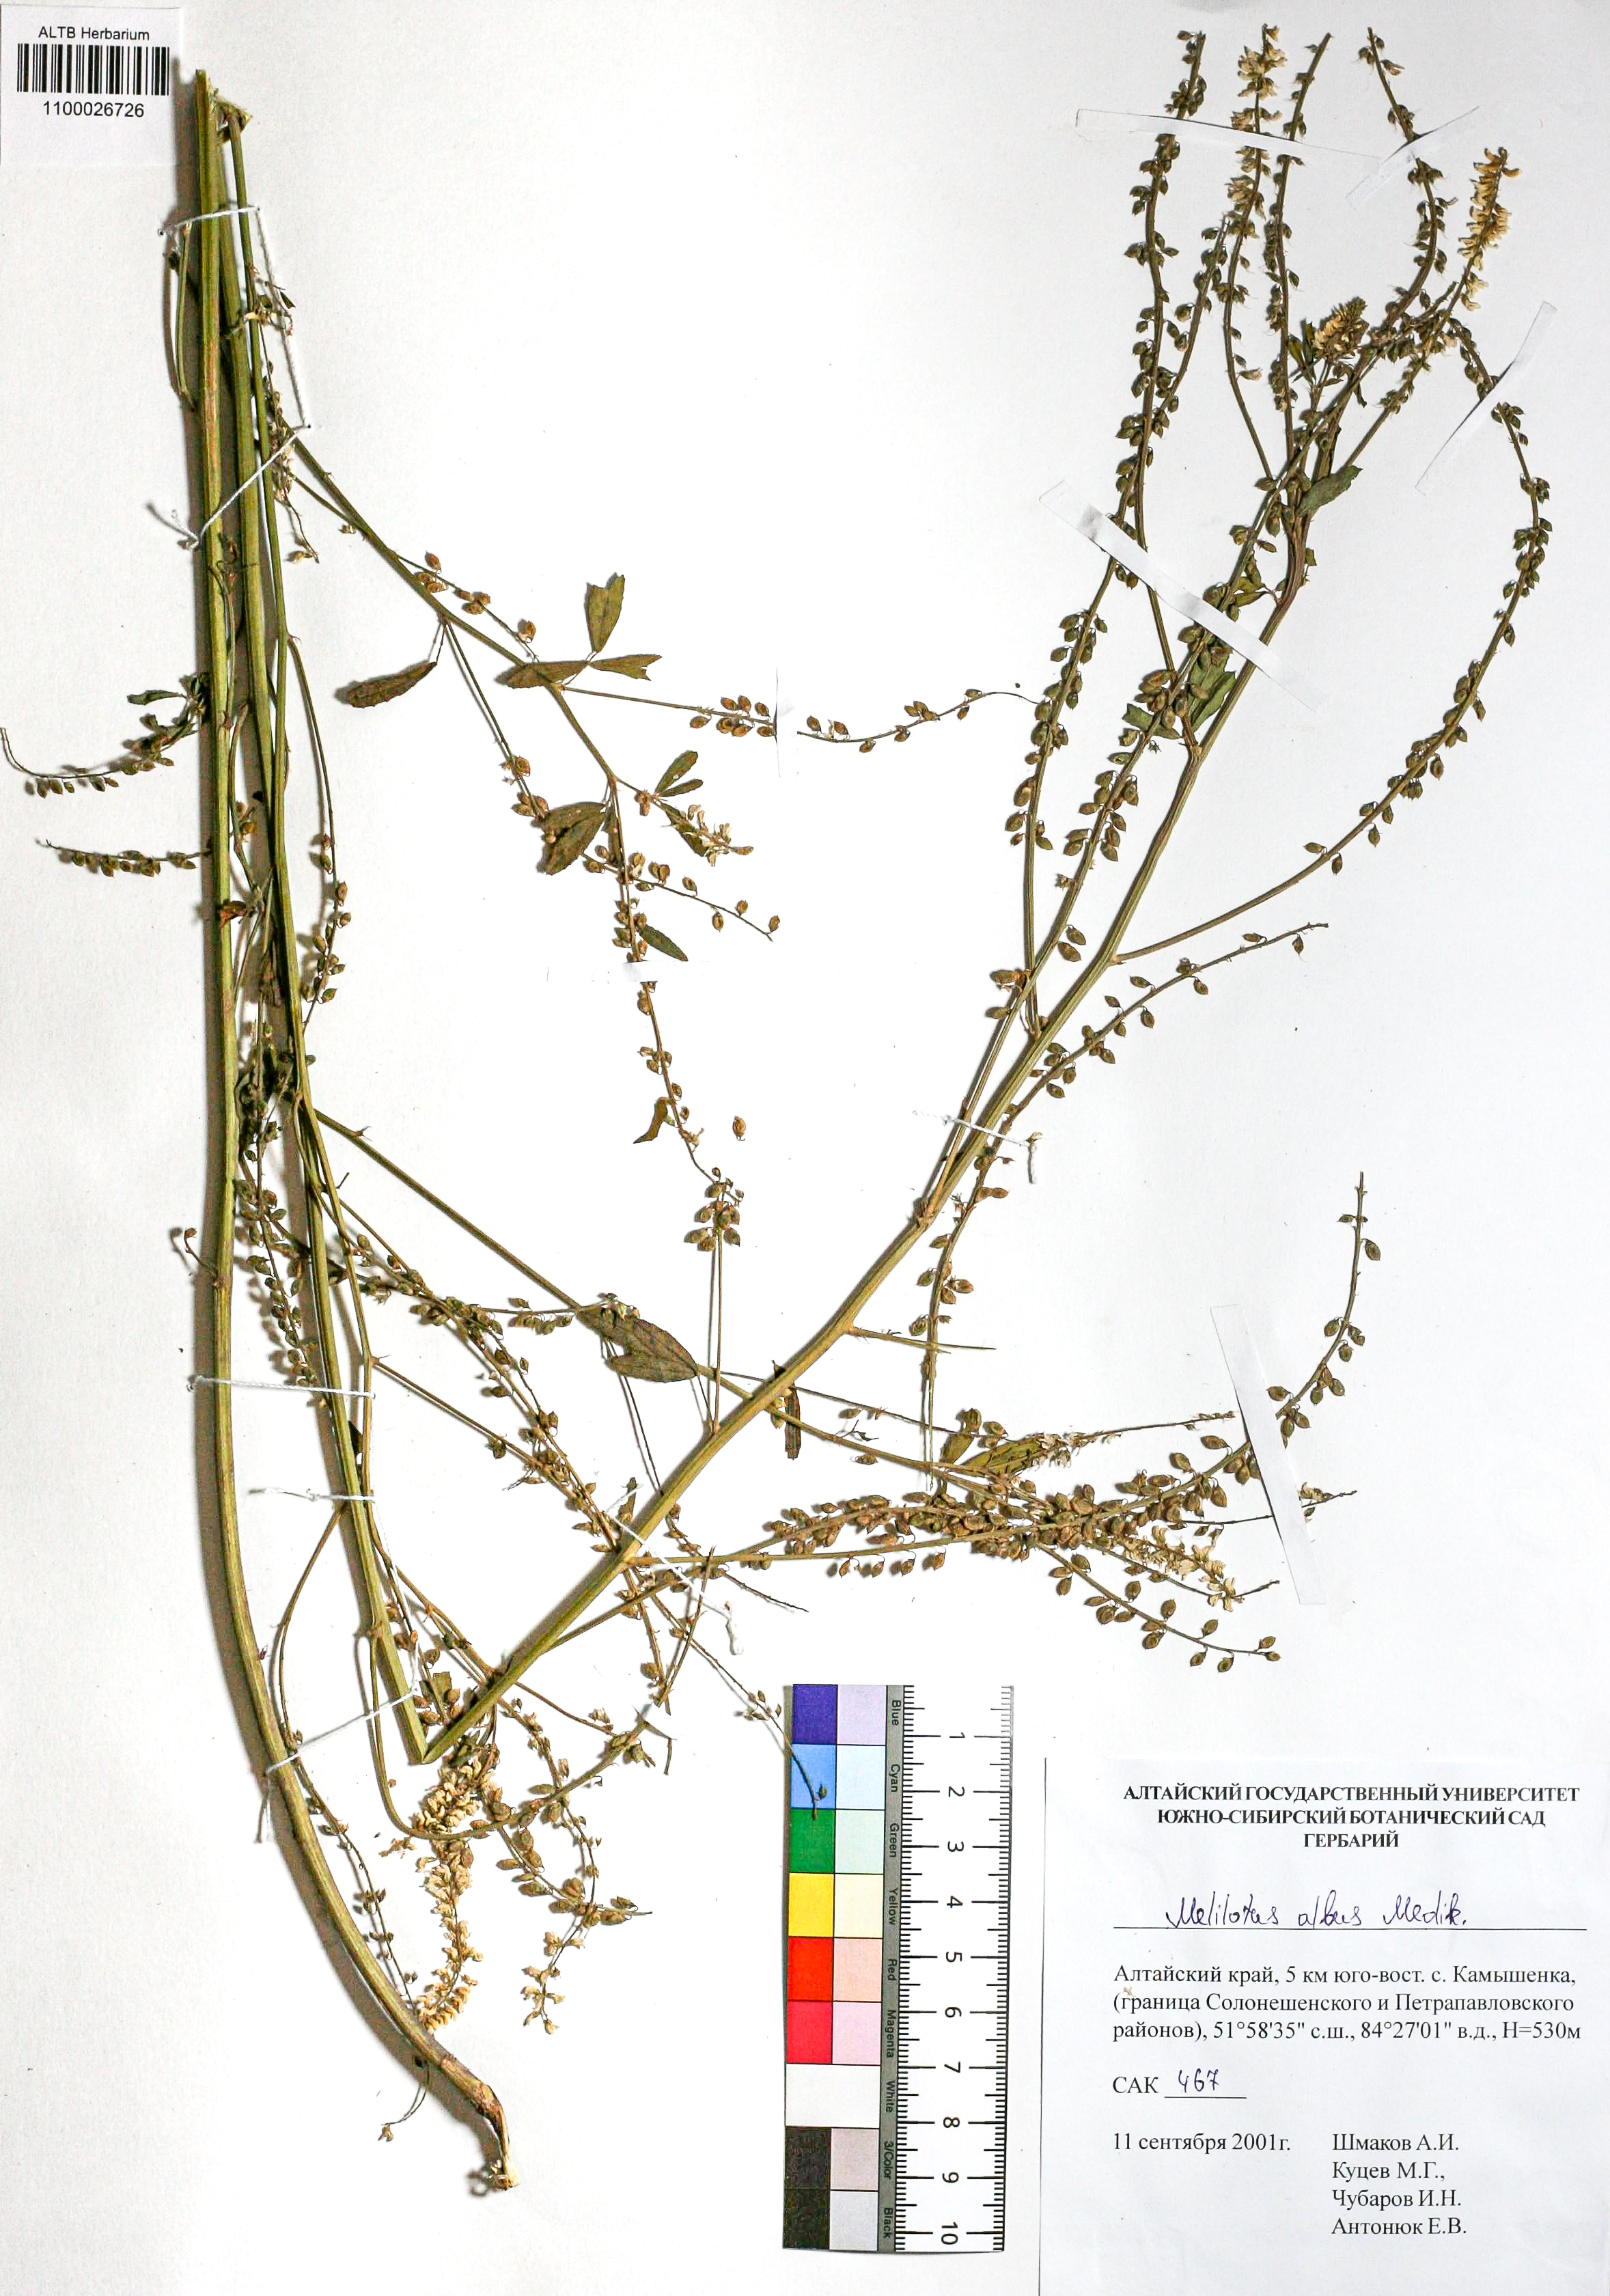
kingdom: Plantae
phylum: Tracheophyta
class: Magnoliopsida
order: Fabales
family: Fabaceae
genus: Melilotus
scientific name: Melilotus albus
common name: White melilot
